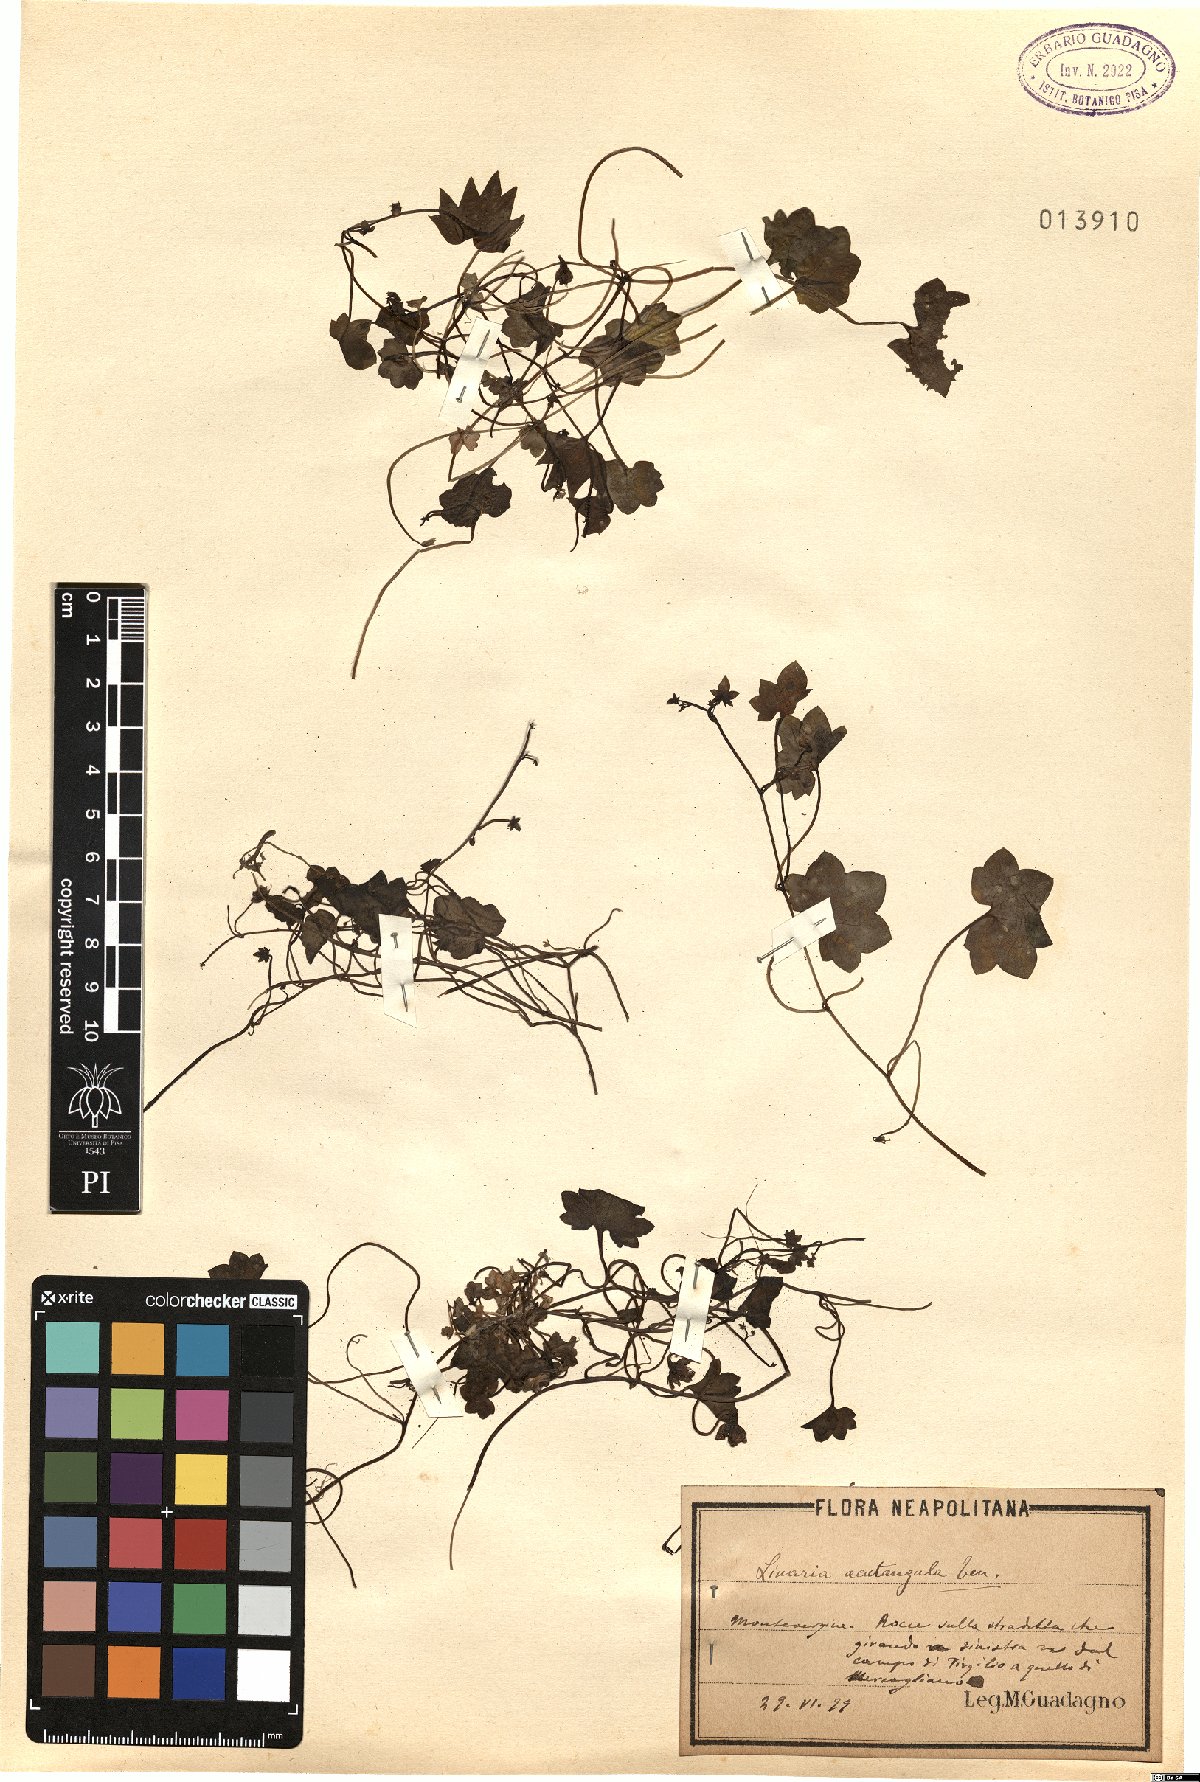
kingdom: Plantae
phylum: Tracheophyta
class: Magnoliopsida
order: Lamiales
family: Plantaginaceae
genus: Cymbalaria
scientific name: Cymbalaria muralis
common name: Ivy-leaved toadflax
